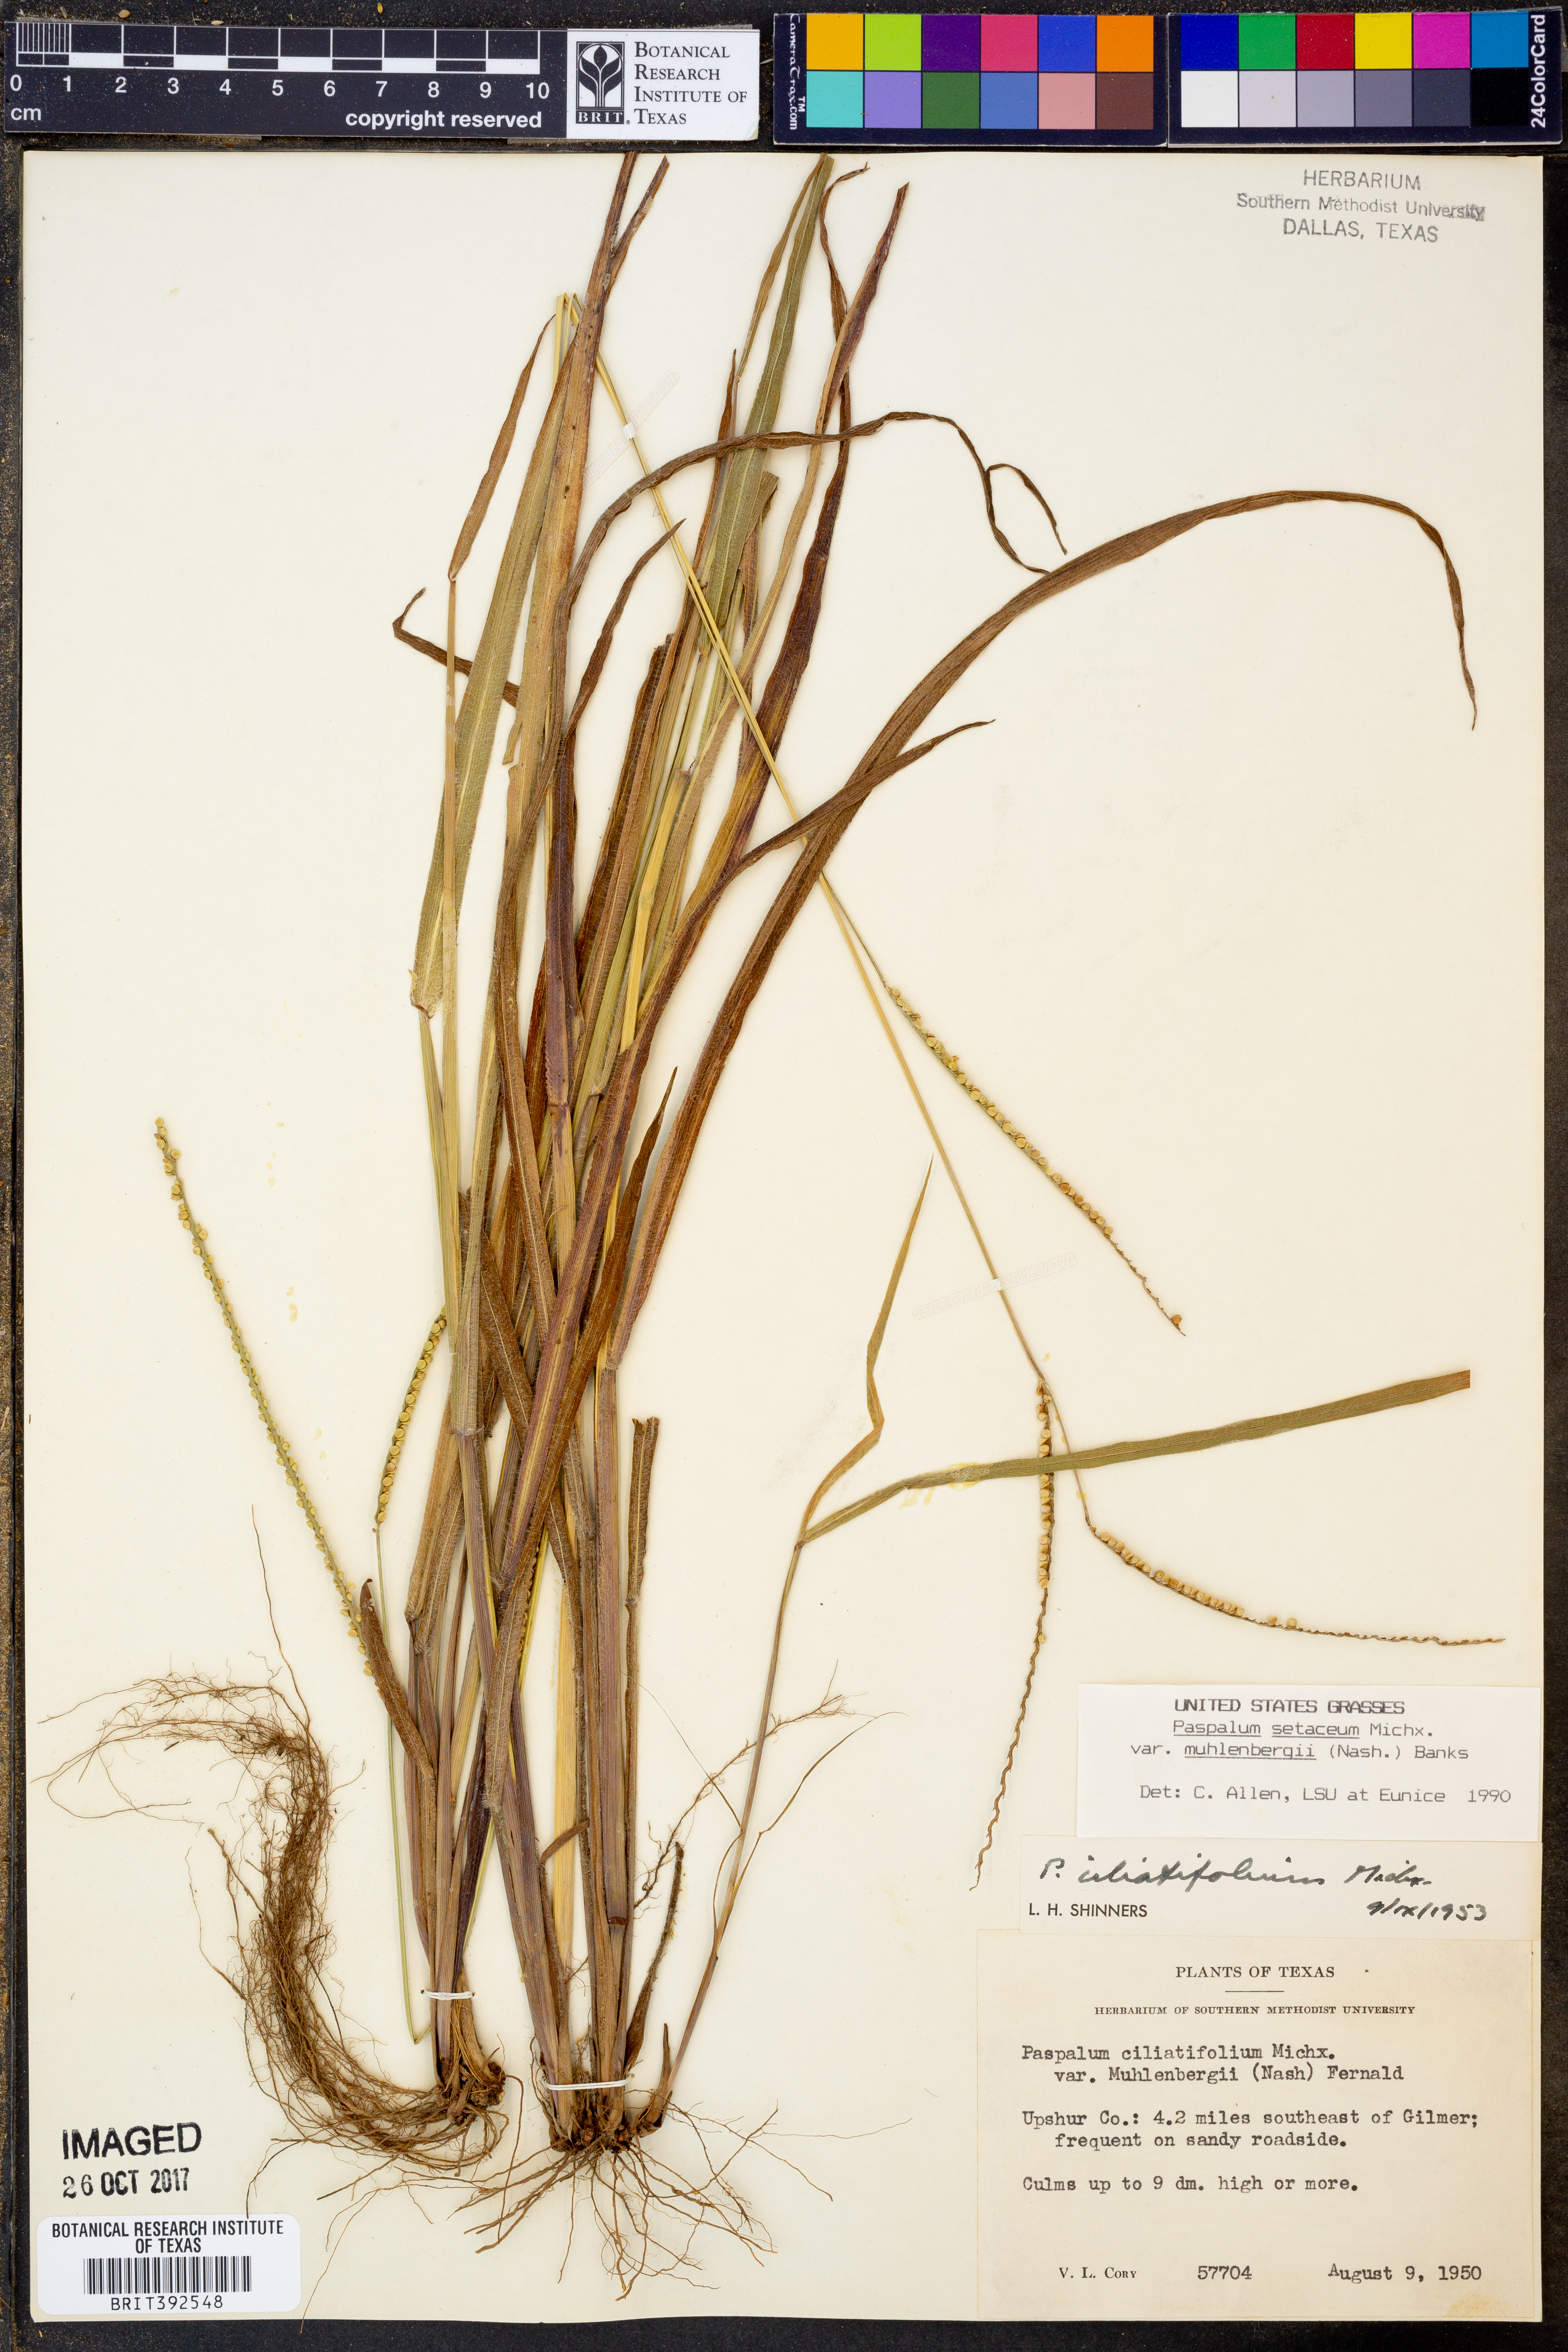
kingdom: Plantae
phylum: Tracheophyta
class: Liliopsida
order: Poales
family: Poaceae
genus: Paspalum
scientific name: Paspalum setaceum
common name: Slender paspalum
